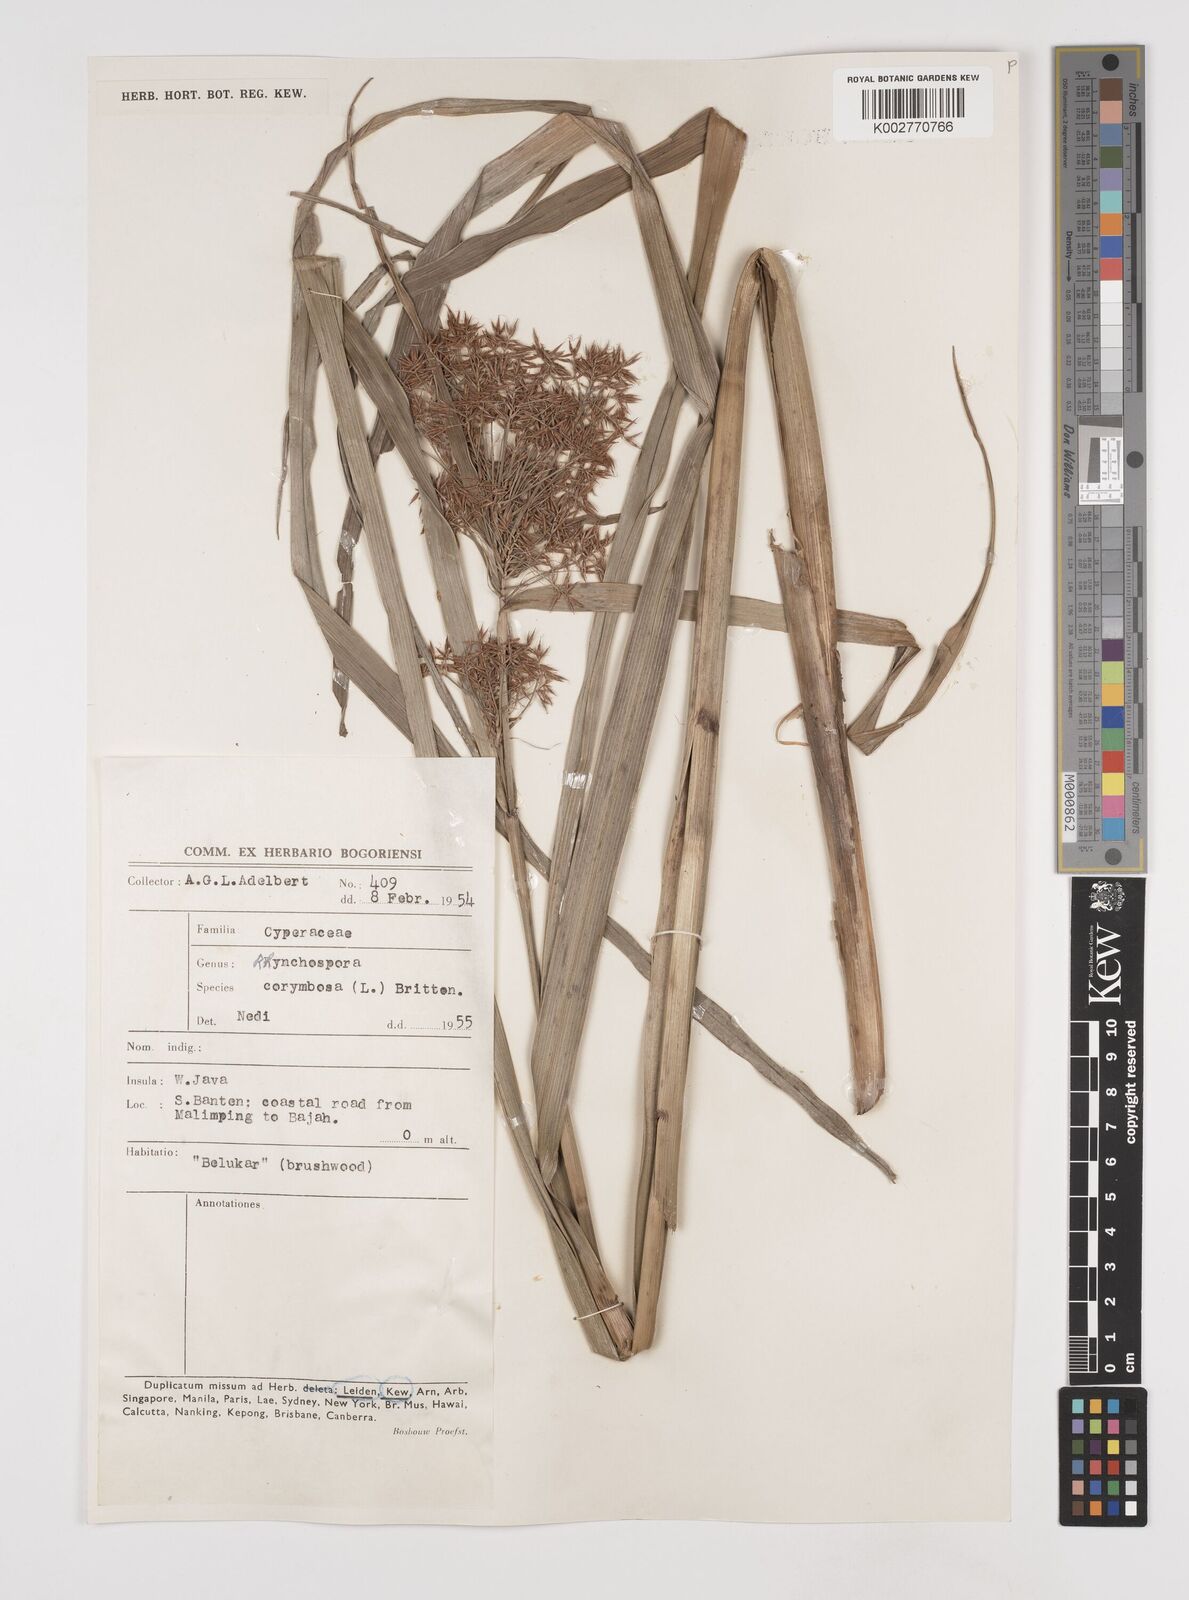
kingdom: Plantae
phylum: Tracheophyta
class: Liliopsida
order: Poales
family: Cyperaceae
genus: Rhynchospora
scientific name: Rhynchospora corymbosa
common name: Golden beak sedge
